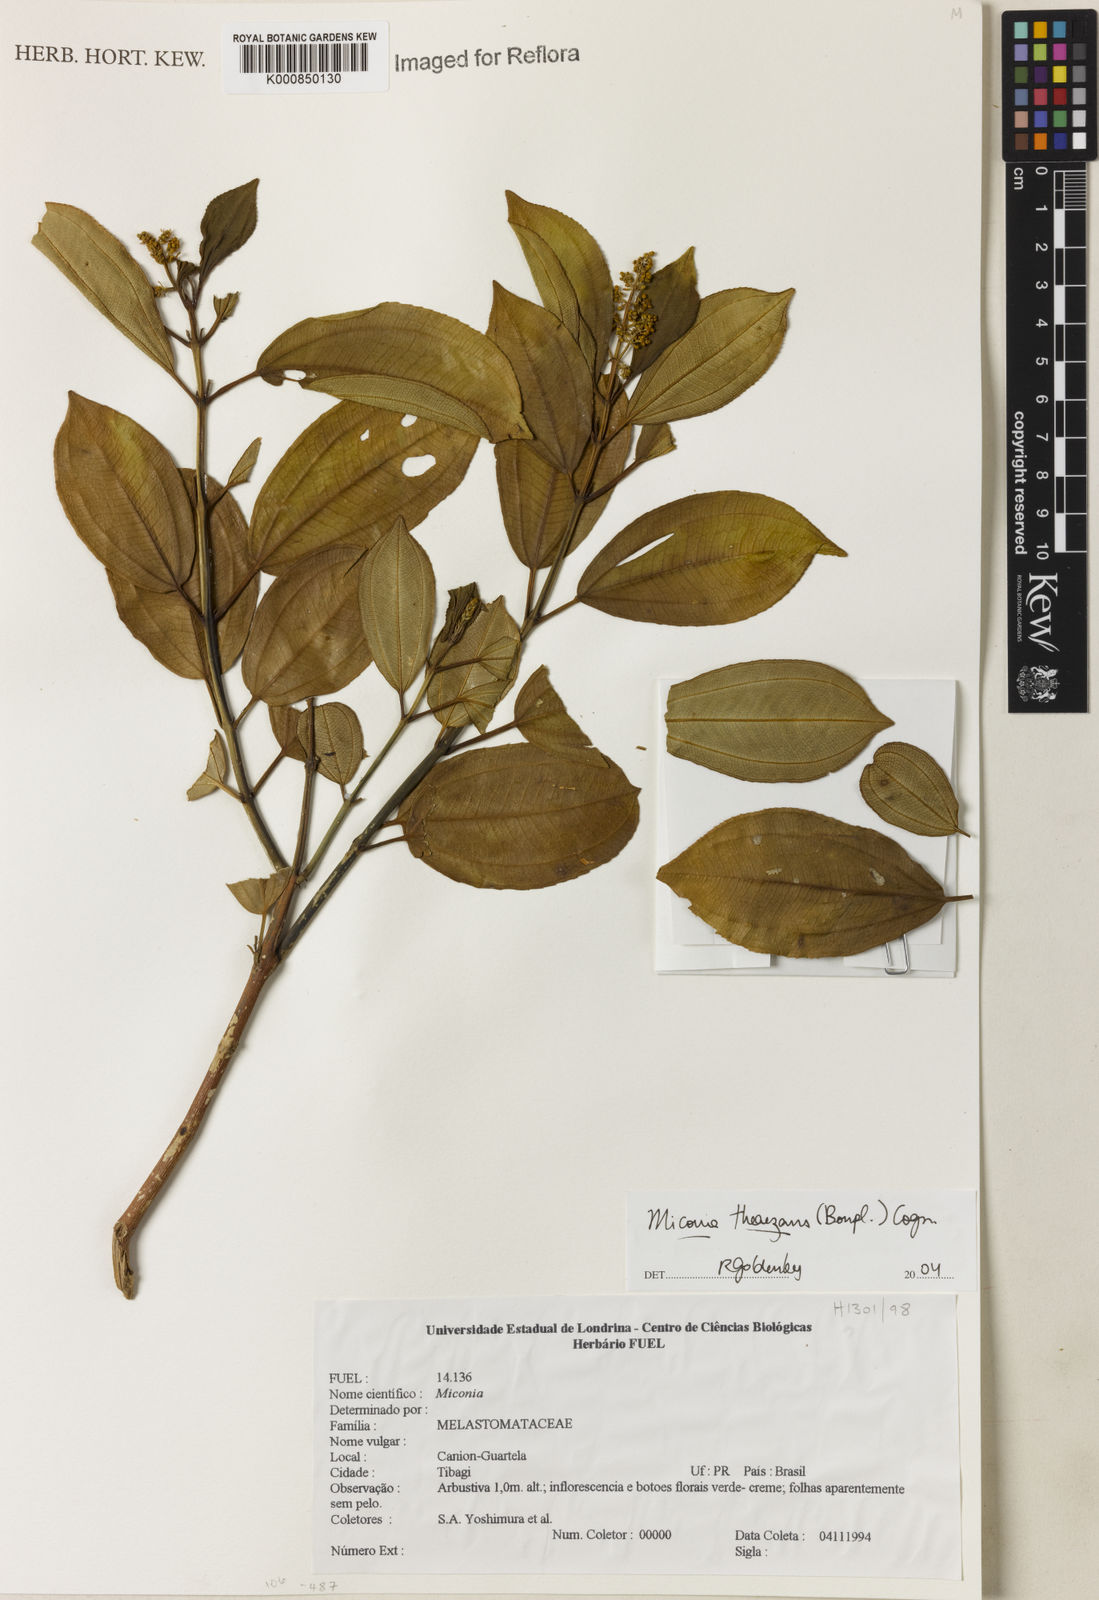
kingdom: Plantae
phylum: Tracheophyta
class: Magnoliopsida
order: Myrtales
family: Melastomataceae
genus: Miconia
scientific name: Miconia
